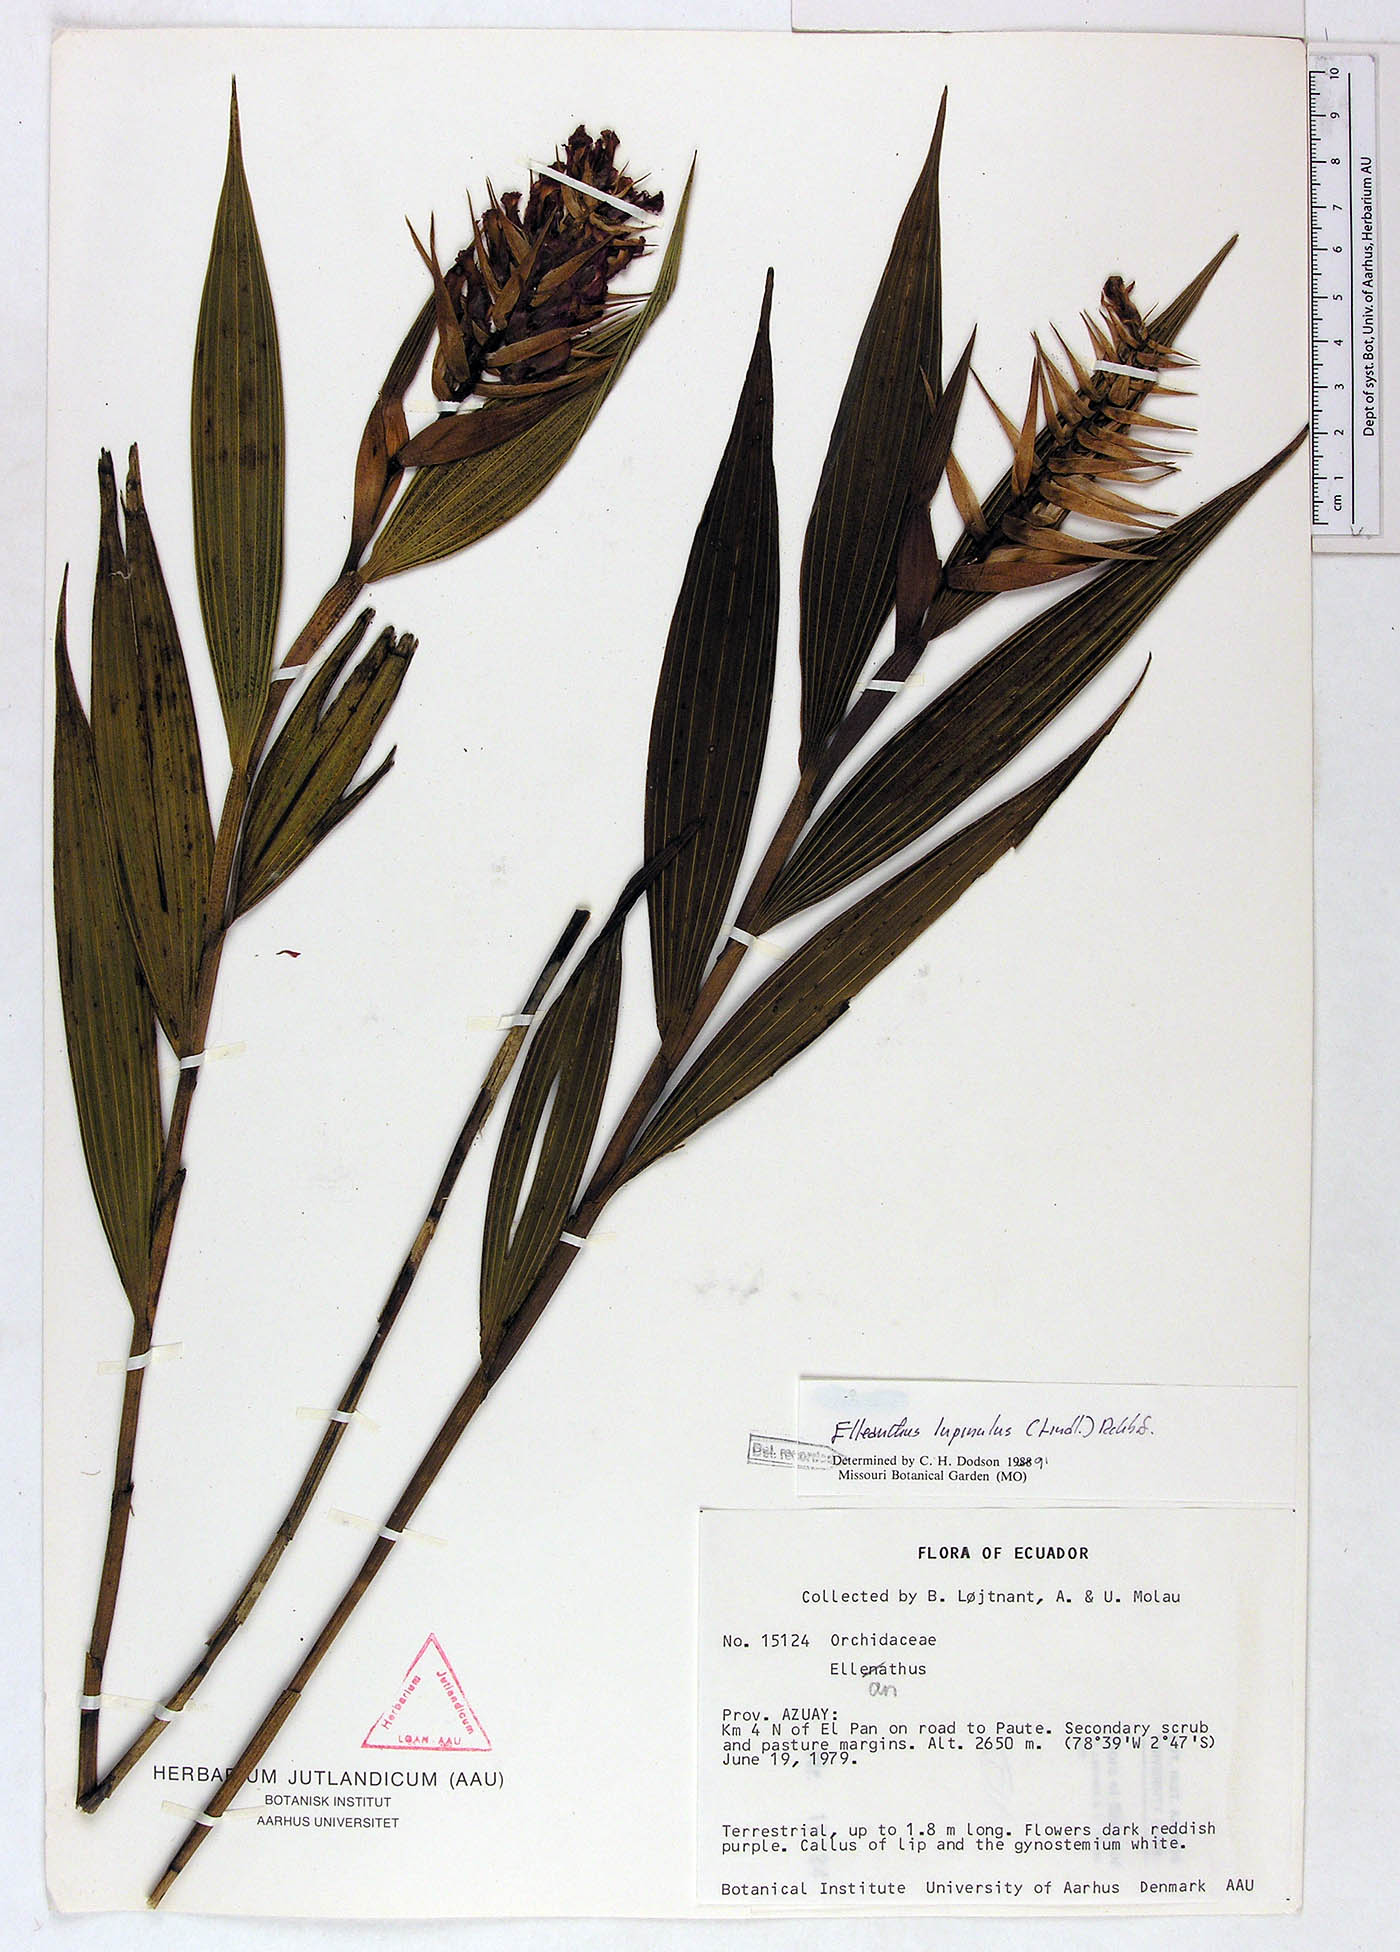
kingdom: Plantae
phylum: Tracheophyta
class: Liliopsida
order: Asparagales
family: Orchidaceae
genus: Elleanthus
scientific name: Elleanthus maculatus
